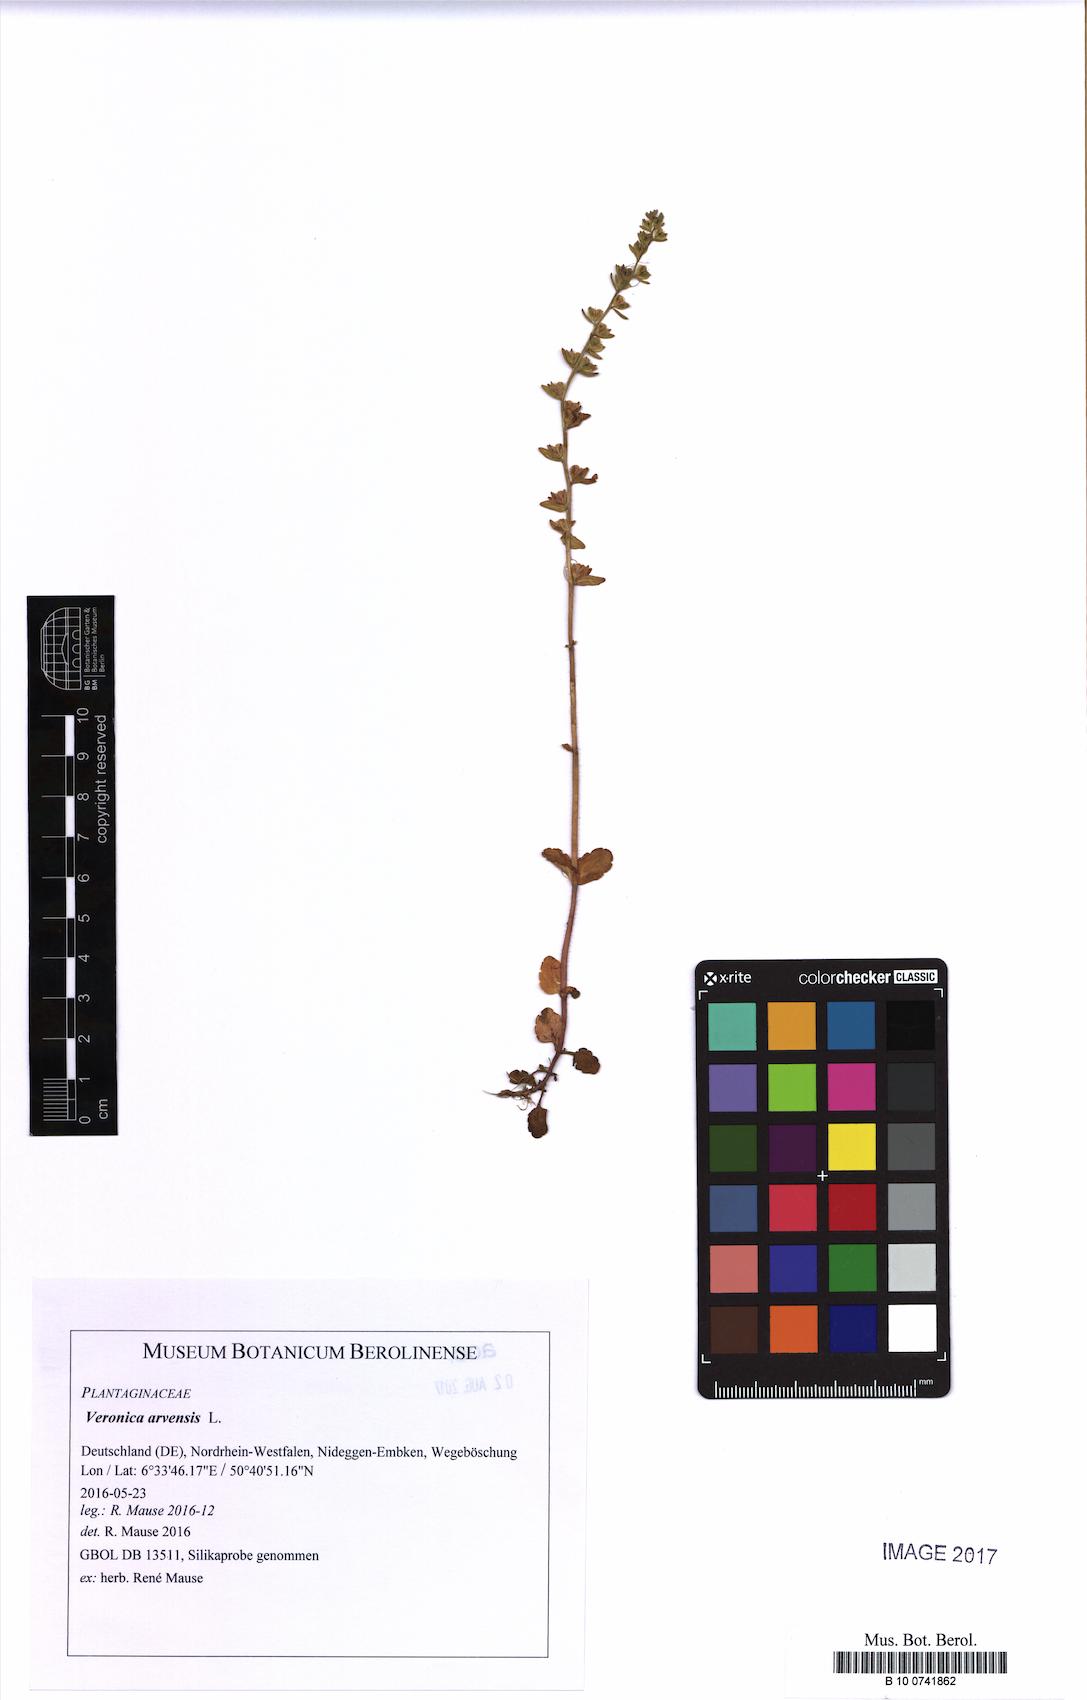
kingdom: Plantae
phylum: Tracheophyta
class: Magnoliopsida
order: Lamiales
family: Plantaginaceae
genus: Veronica
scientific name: Veronica arvensis
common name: Corn speedwell
